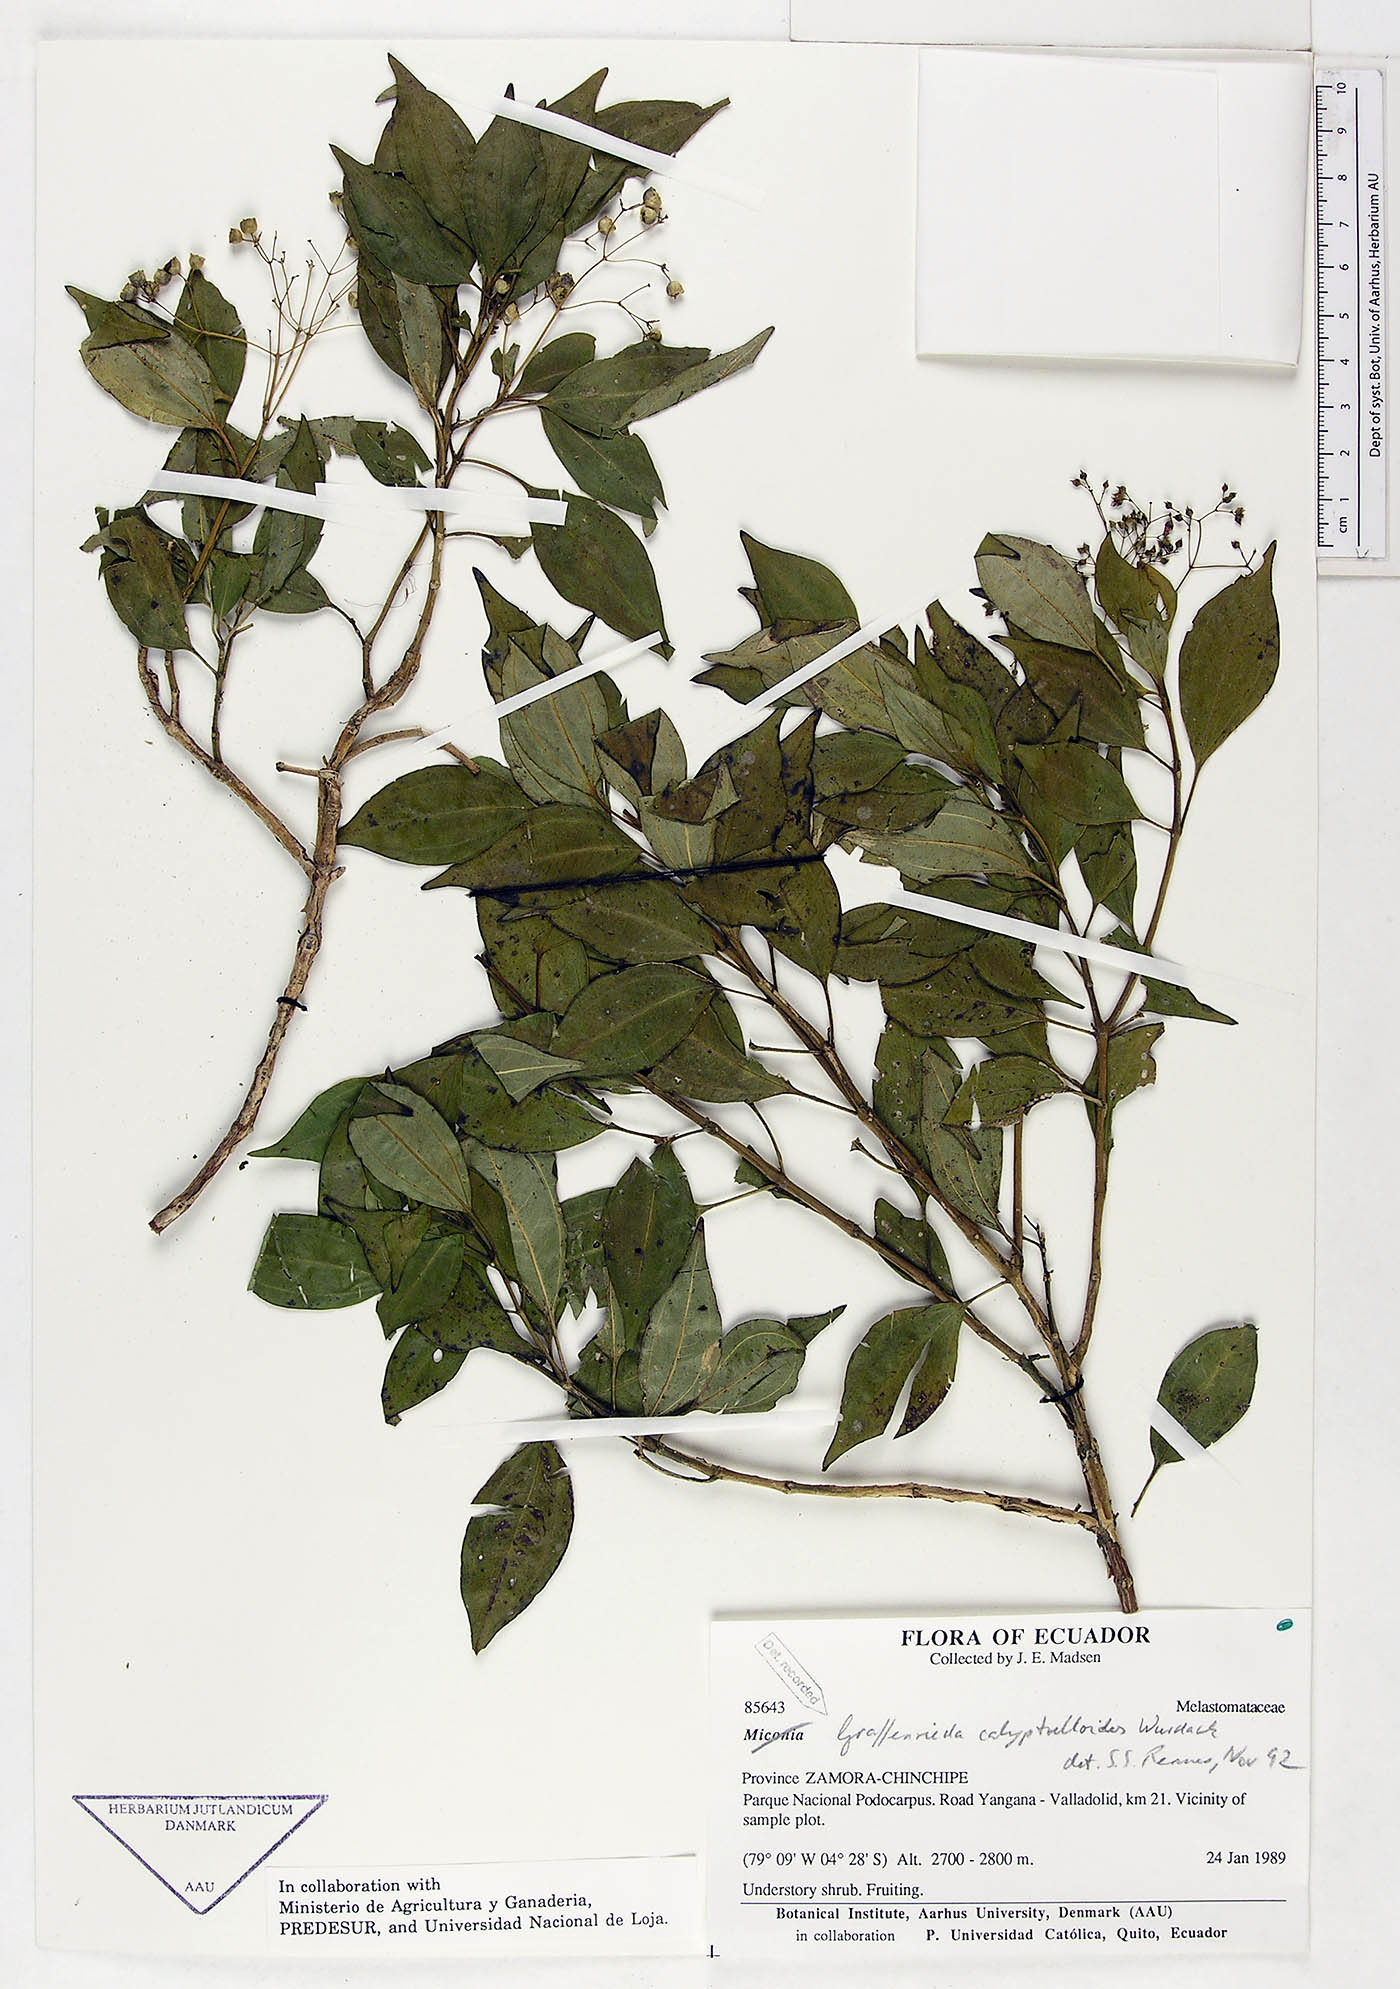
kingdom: Plantae
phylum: Tracheophyta
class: Magnoliopsida
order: Myrtales
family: Melastomataceae
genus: Graffenrieda
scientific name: Graffenrieda calyptrelloides
